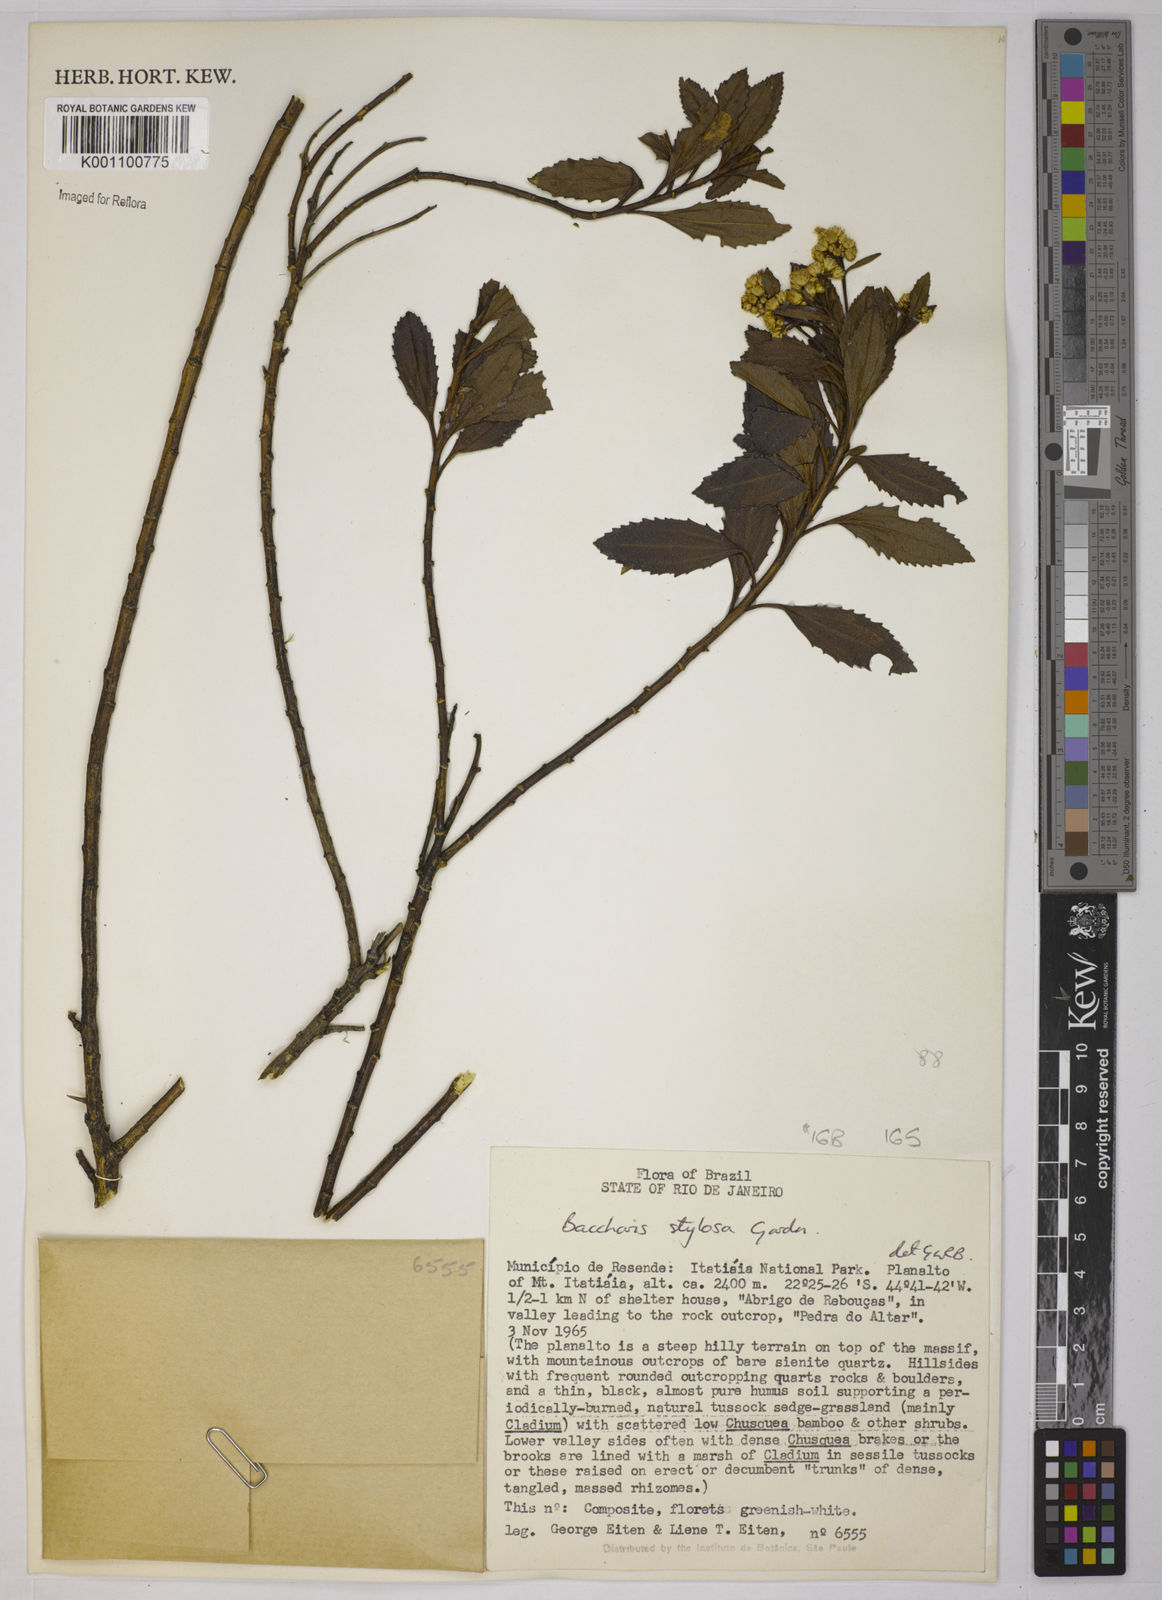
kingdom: Plantae
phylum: Tracheophyta
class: Magnoliopsida
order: Asterales
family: Asteraceae
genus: Baccharis
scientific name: Baccharis stylosa
